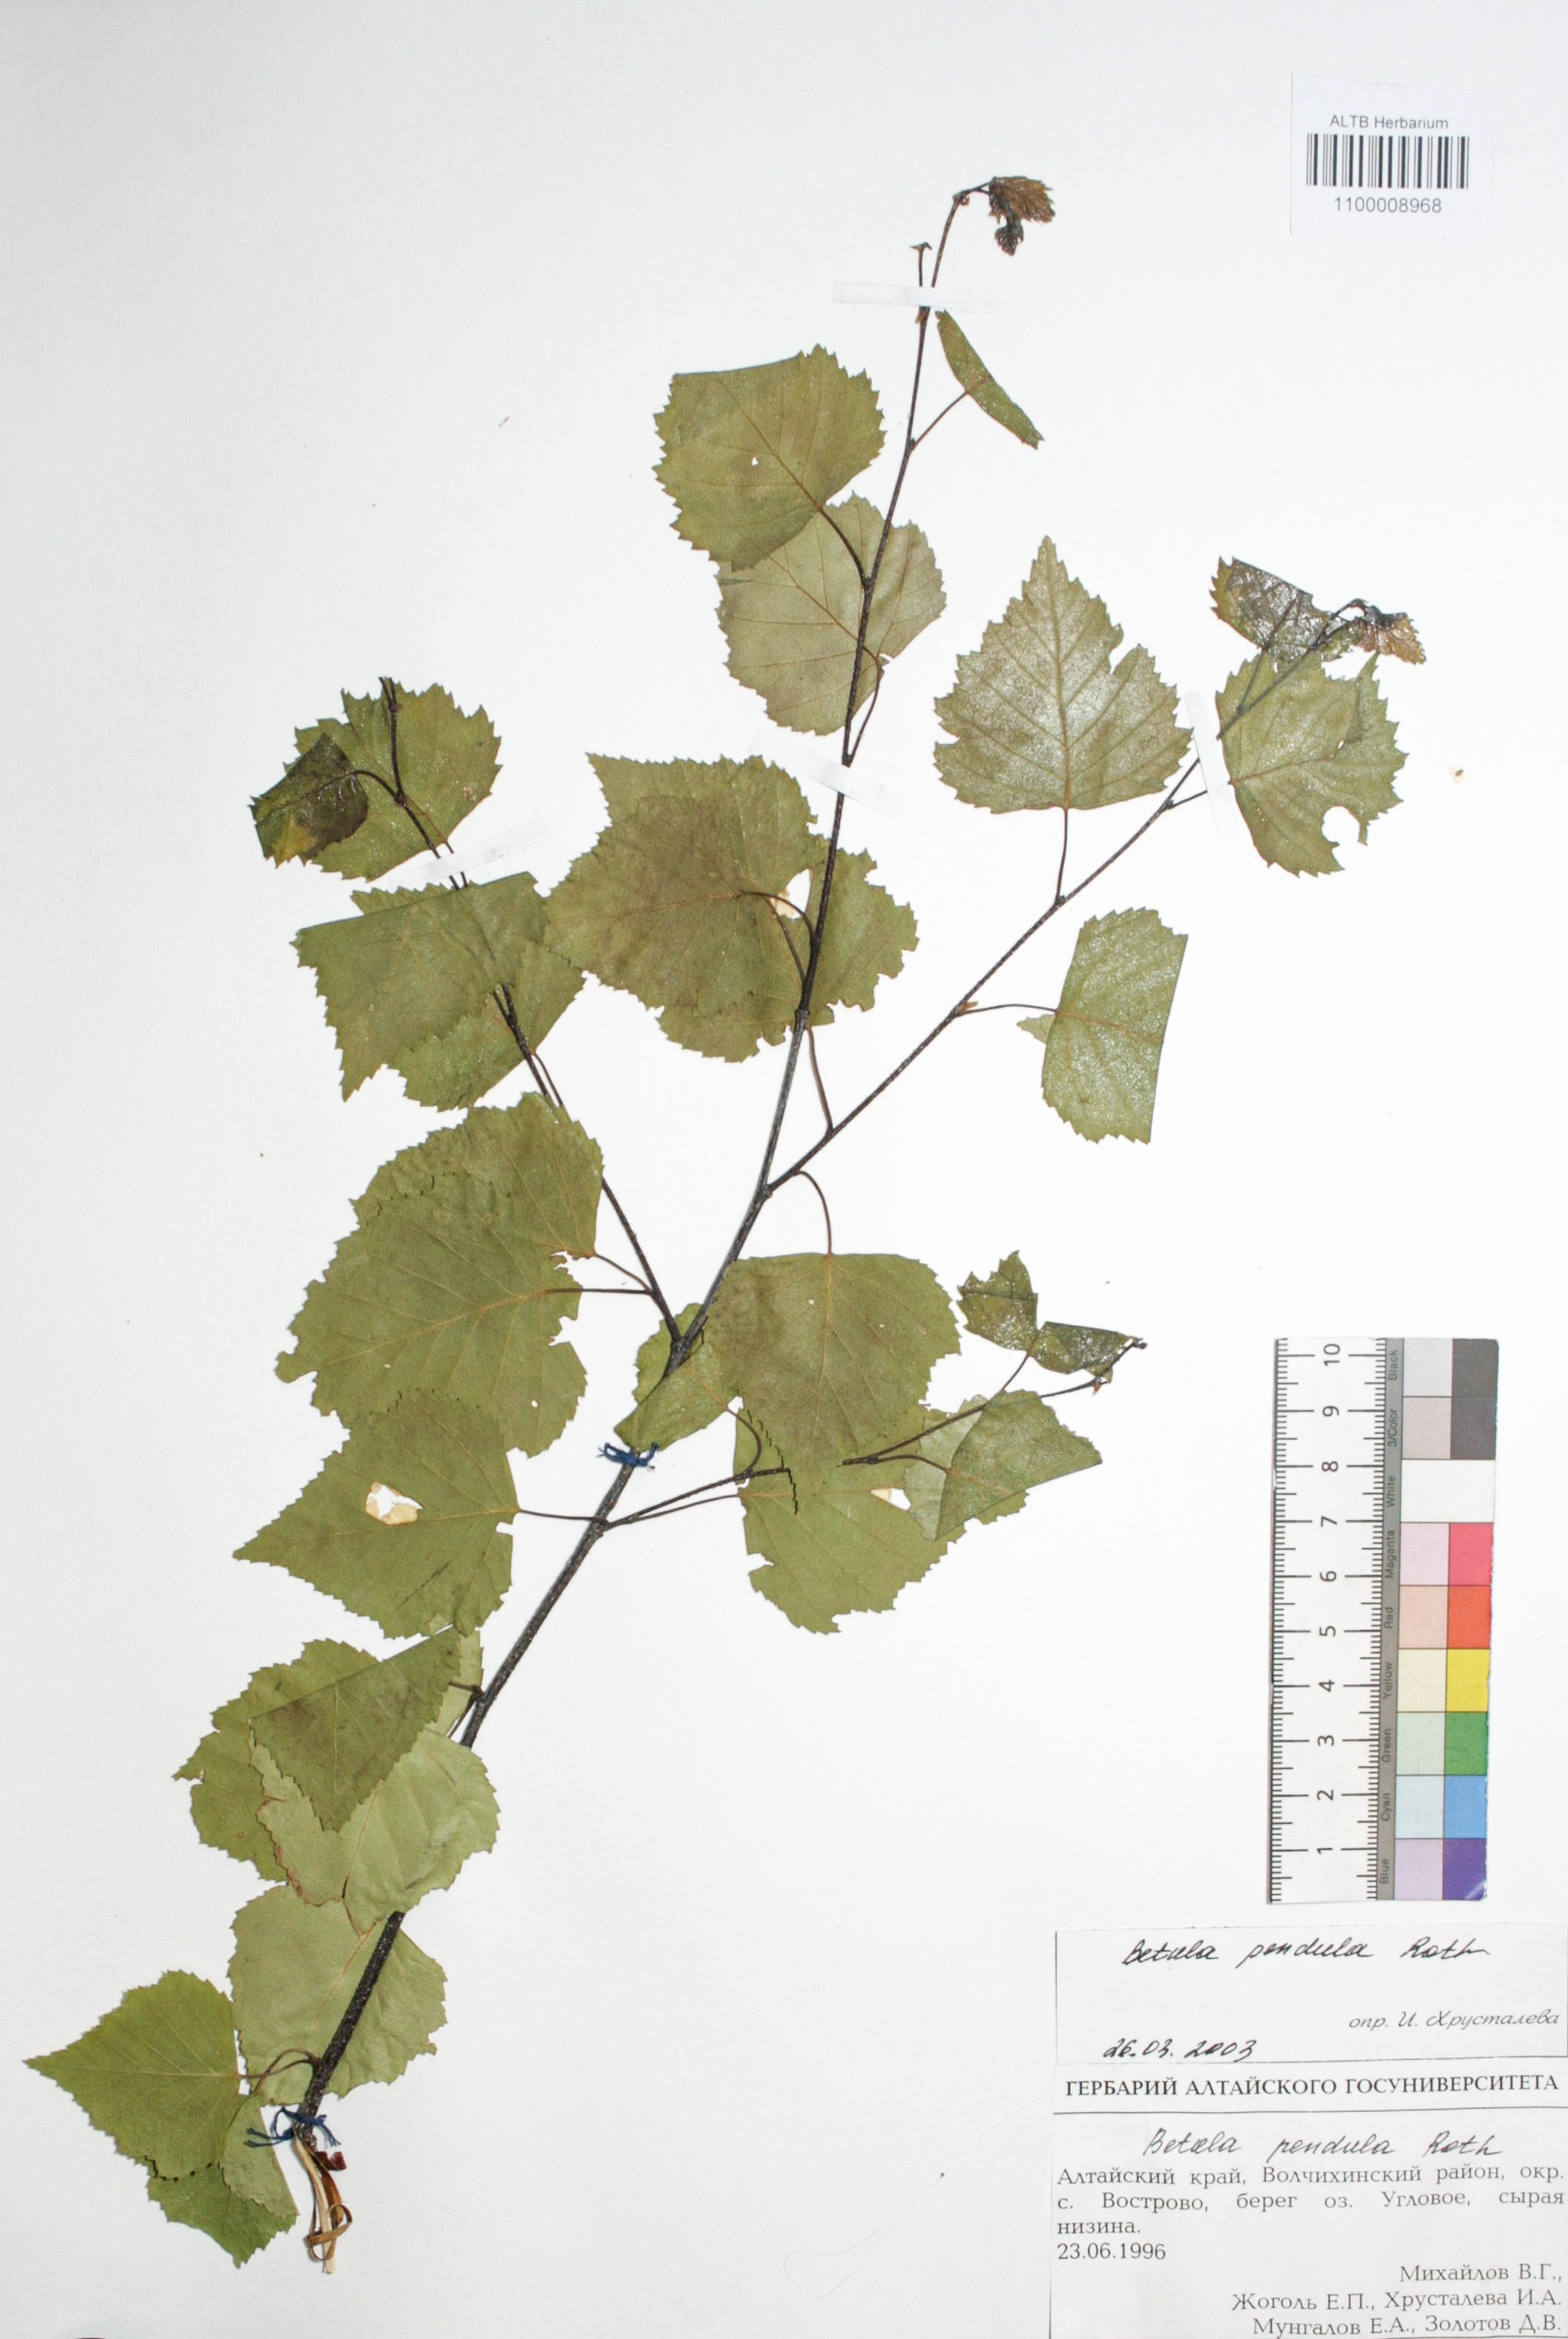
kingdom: Plantae
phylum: Tracheophyta
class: Magnoliopsida
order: Fagales
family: Betulaceae
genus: Betula
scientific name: Betula pendula
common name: Silver birch
